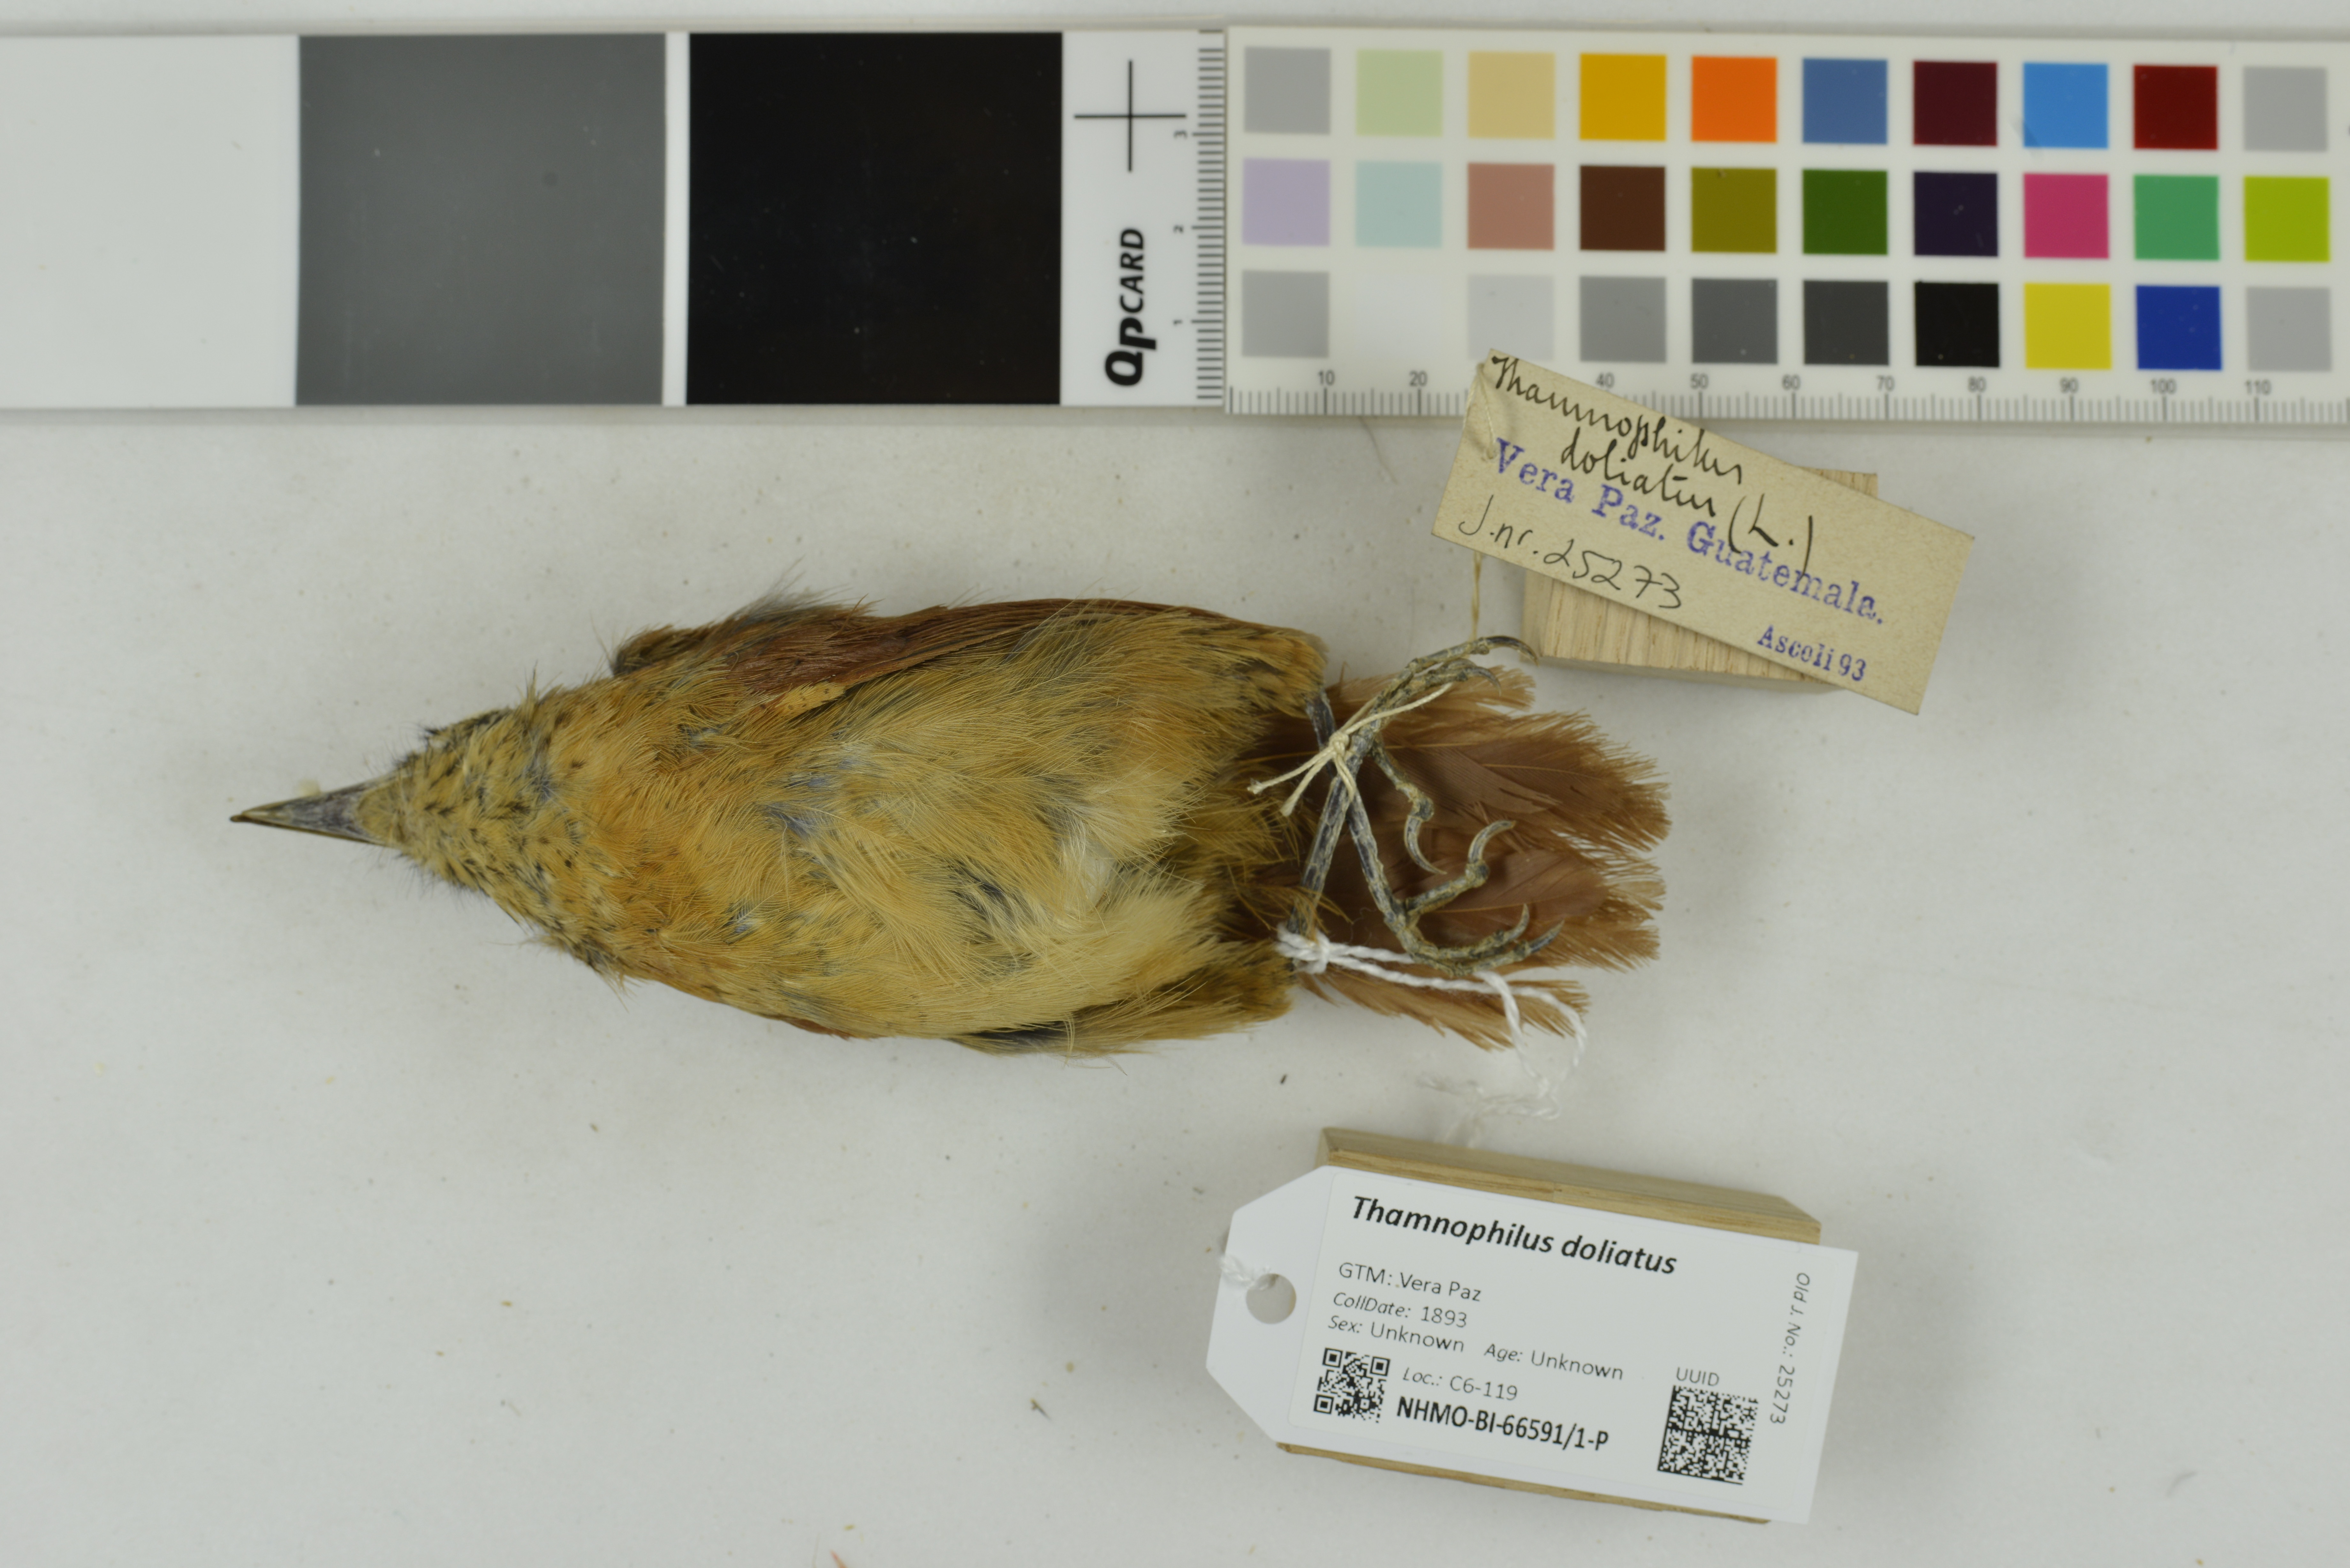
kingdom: Animalia
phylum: Chordata
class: Aves
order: Passeriformes
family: Thamnophilidae
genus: Thamnophilus
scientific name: Thamnophilus doliatus
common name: Barred antshrike
